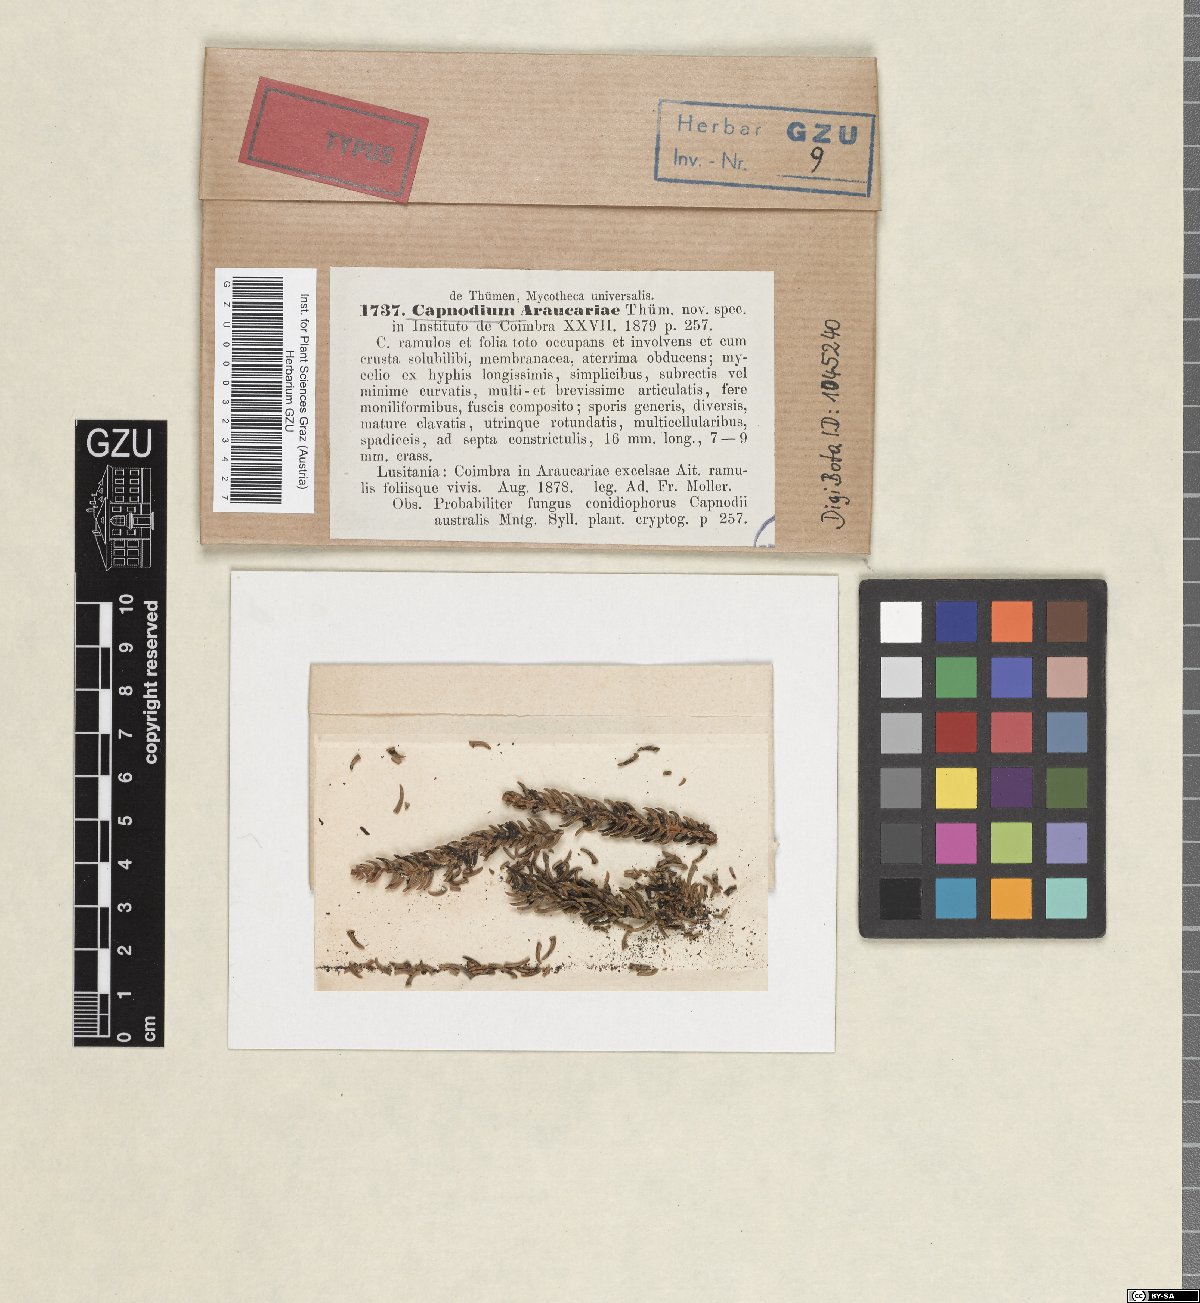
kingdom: Fungi
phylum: Ascomycota
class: Dothideomycetes
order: Capnodiales
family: Capnodiaceae
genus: Polychaetella
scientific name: Polychaetella araucariae
